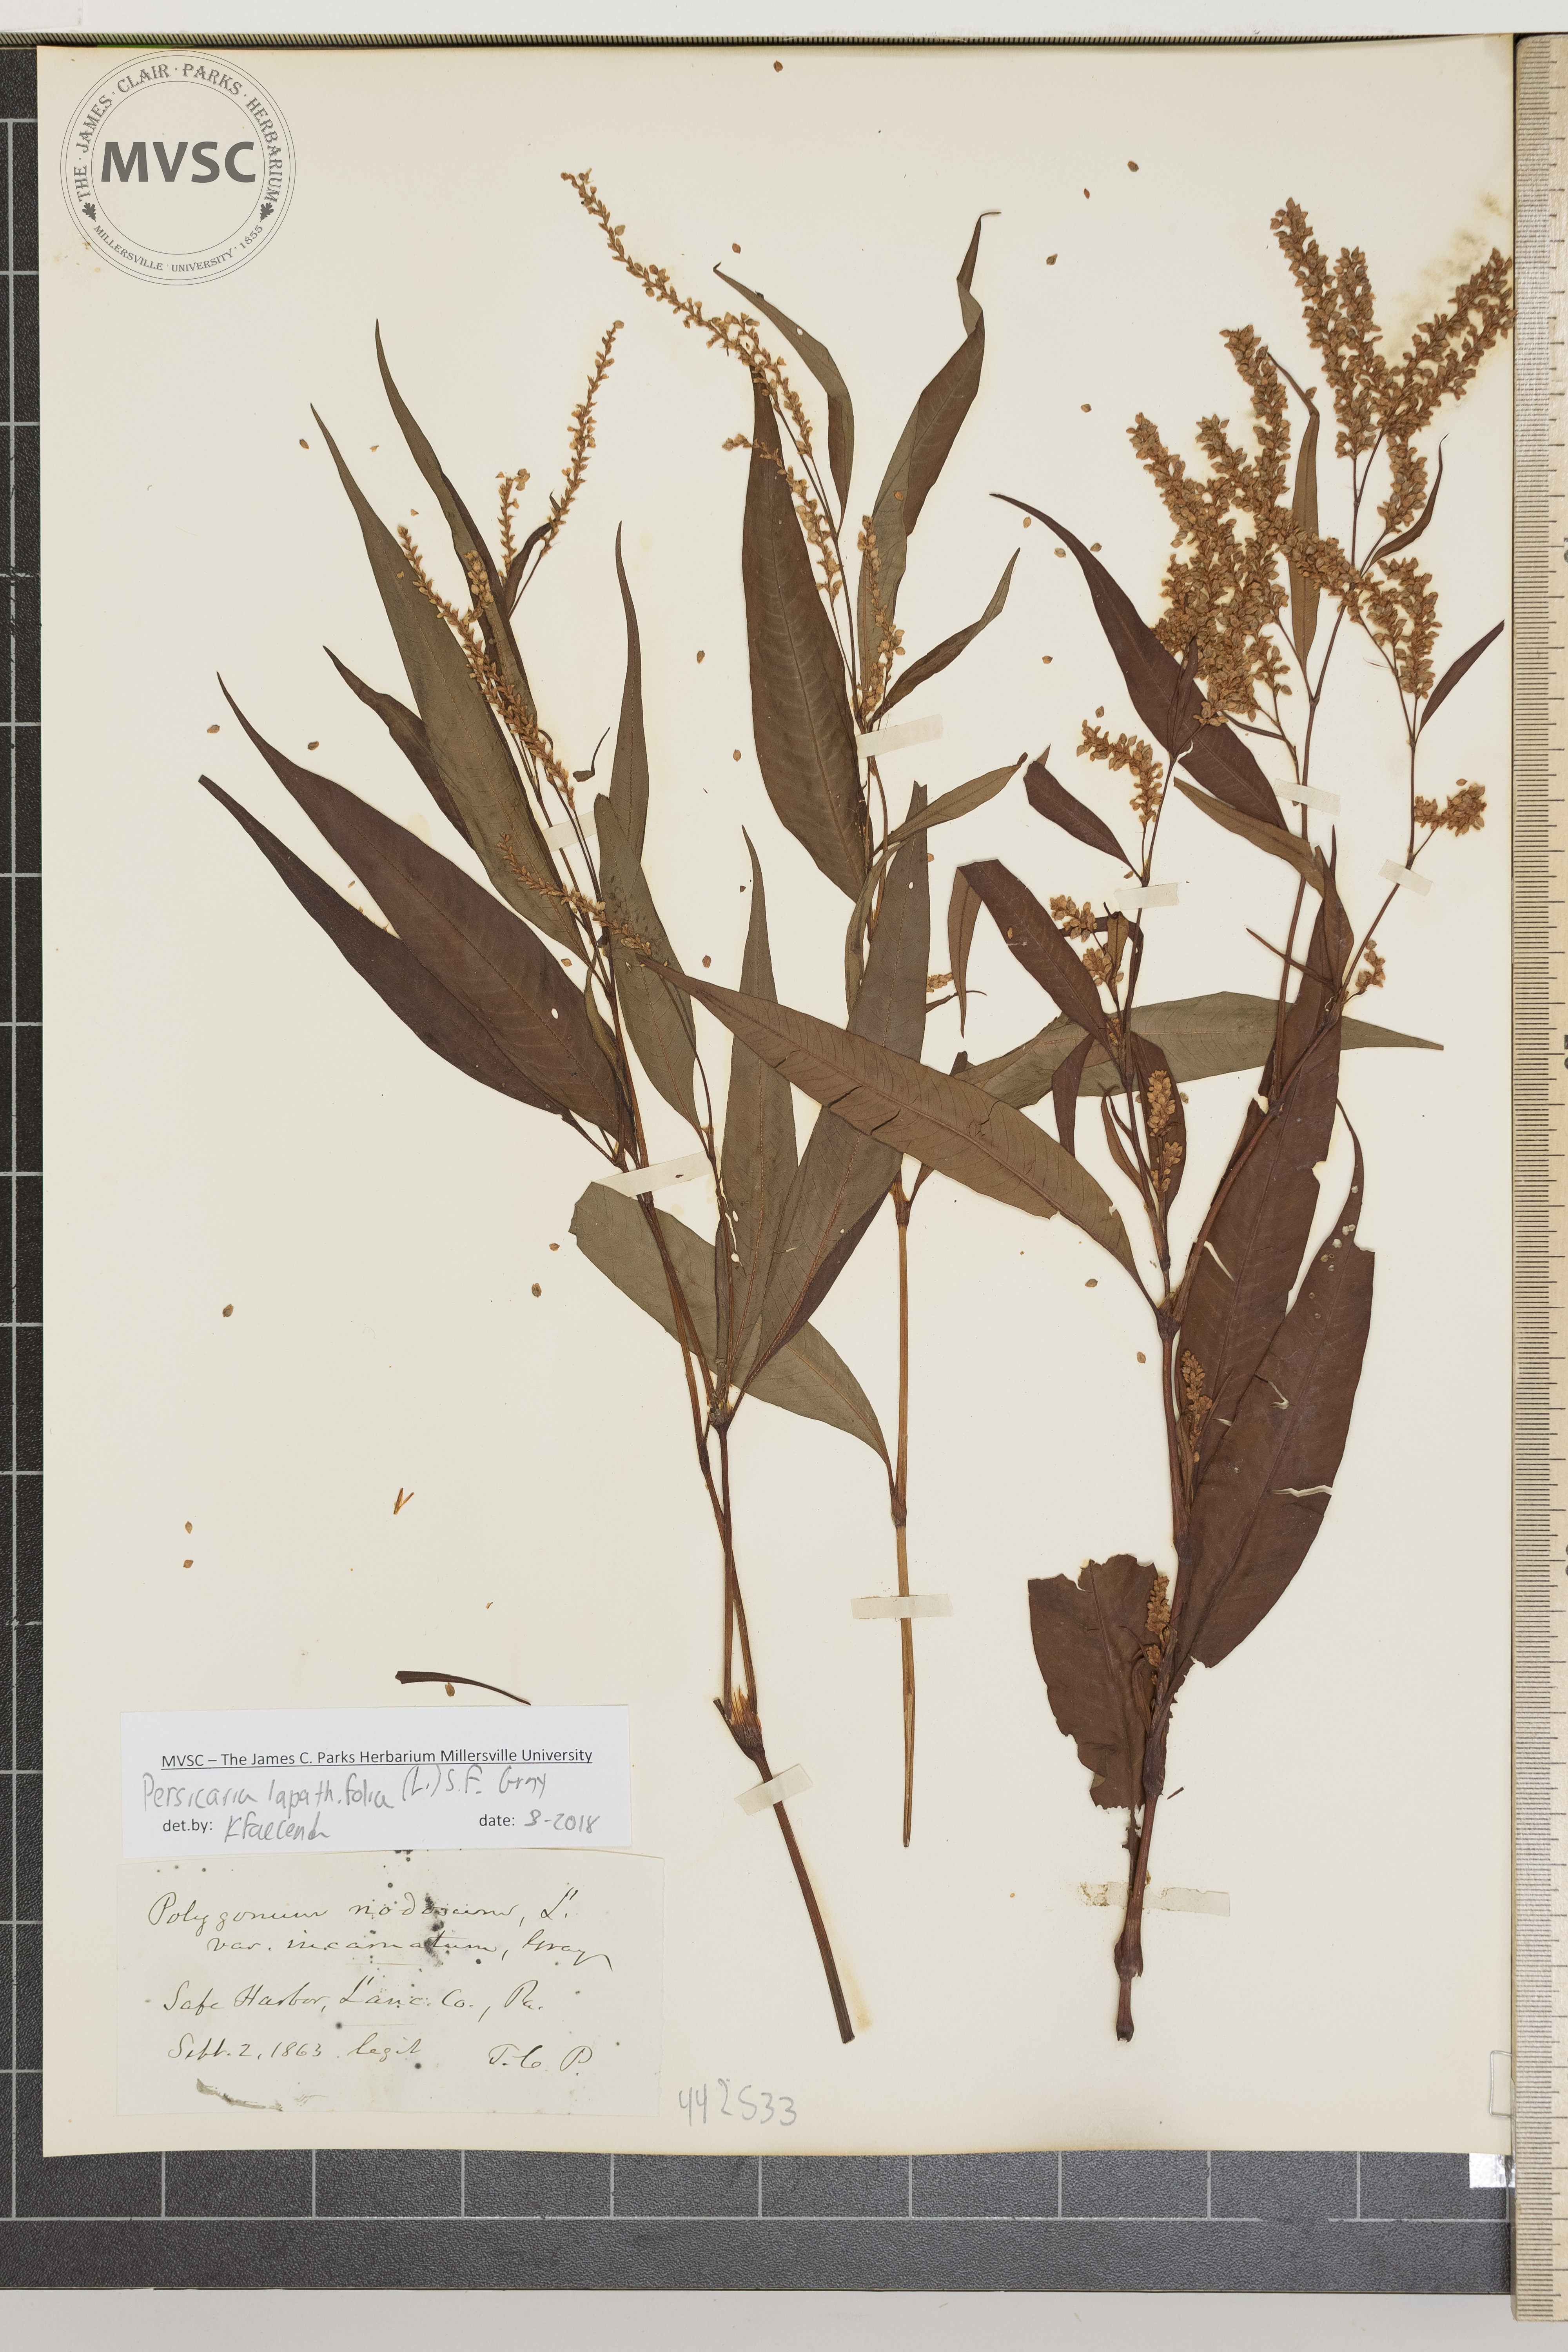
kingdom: Plantae
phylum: Tracheophyta
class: Magnoliopsida
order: Caryophyllales
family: Polygonaceae
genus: Persicaria
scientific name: Persicaria lapathifolia
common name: Curlytop knotweed
